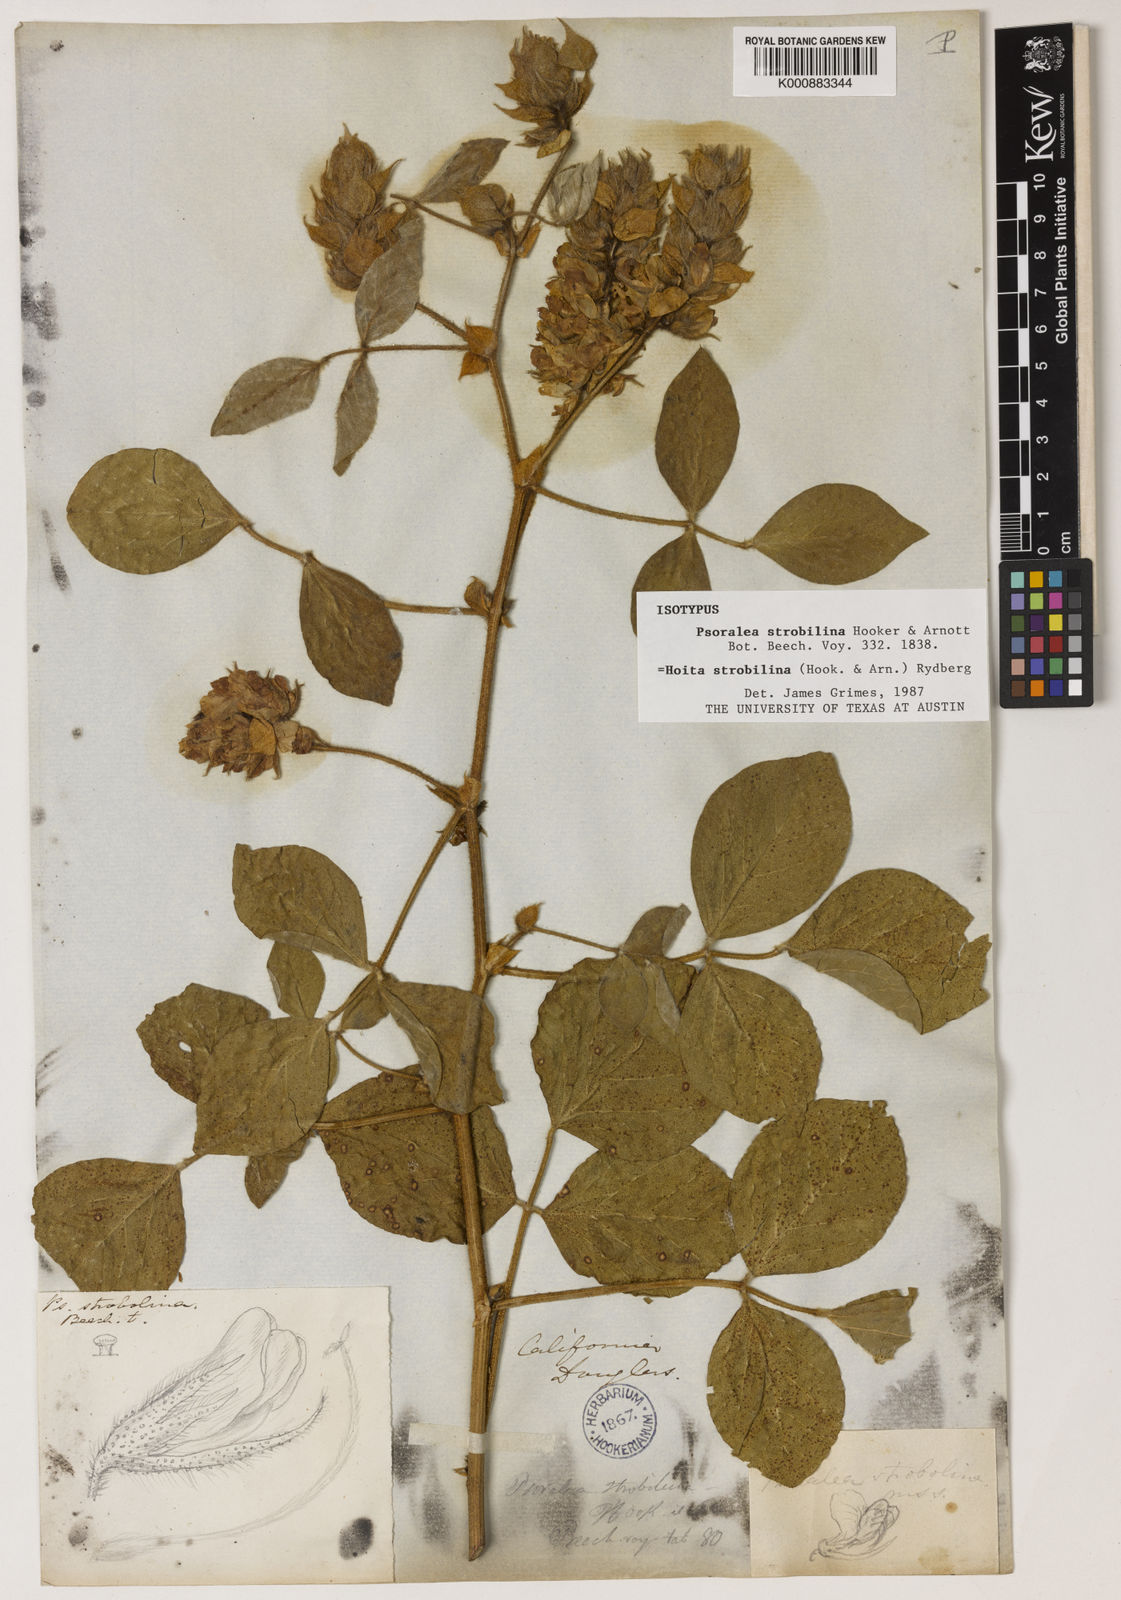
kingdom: Plantae
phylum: Tracheophyta
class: Magnoliopsida
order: Fabales
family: Fabaceae
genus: Hoita
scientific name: Hoita strobilina
